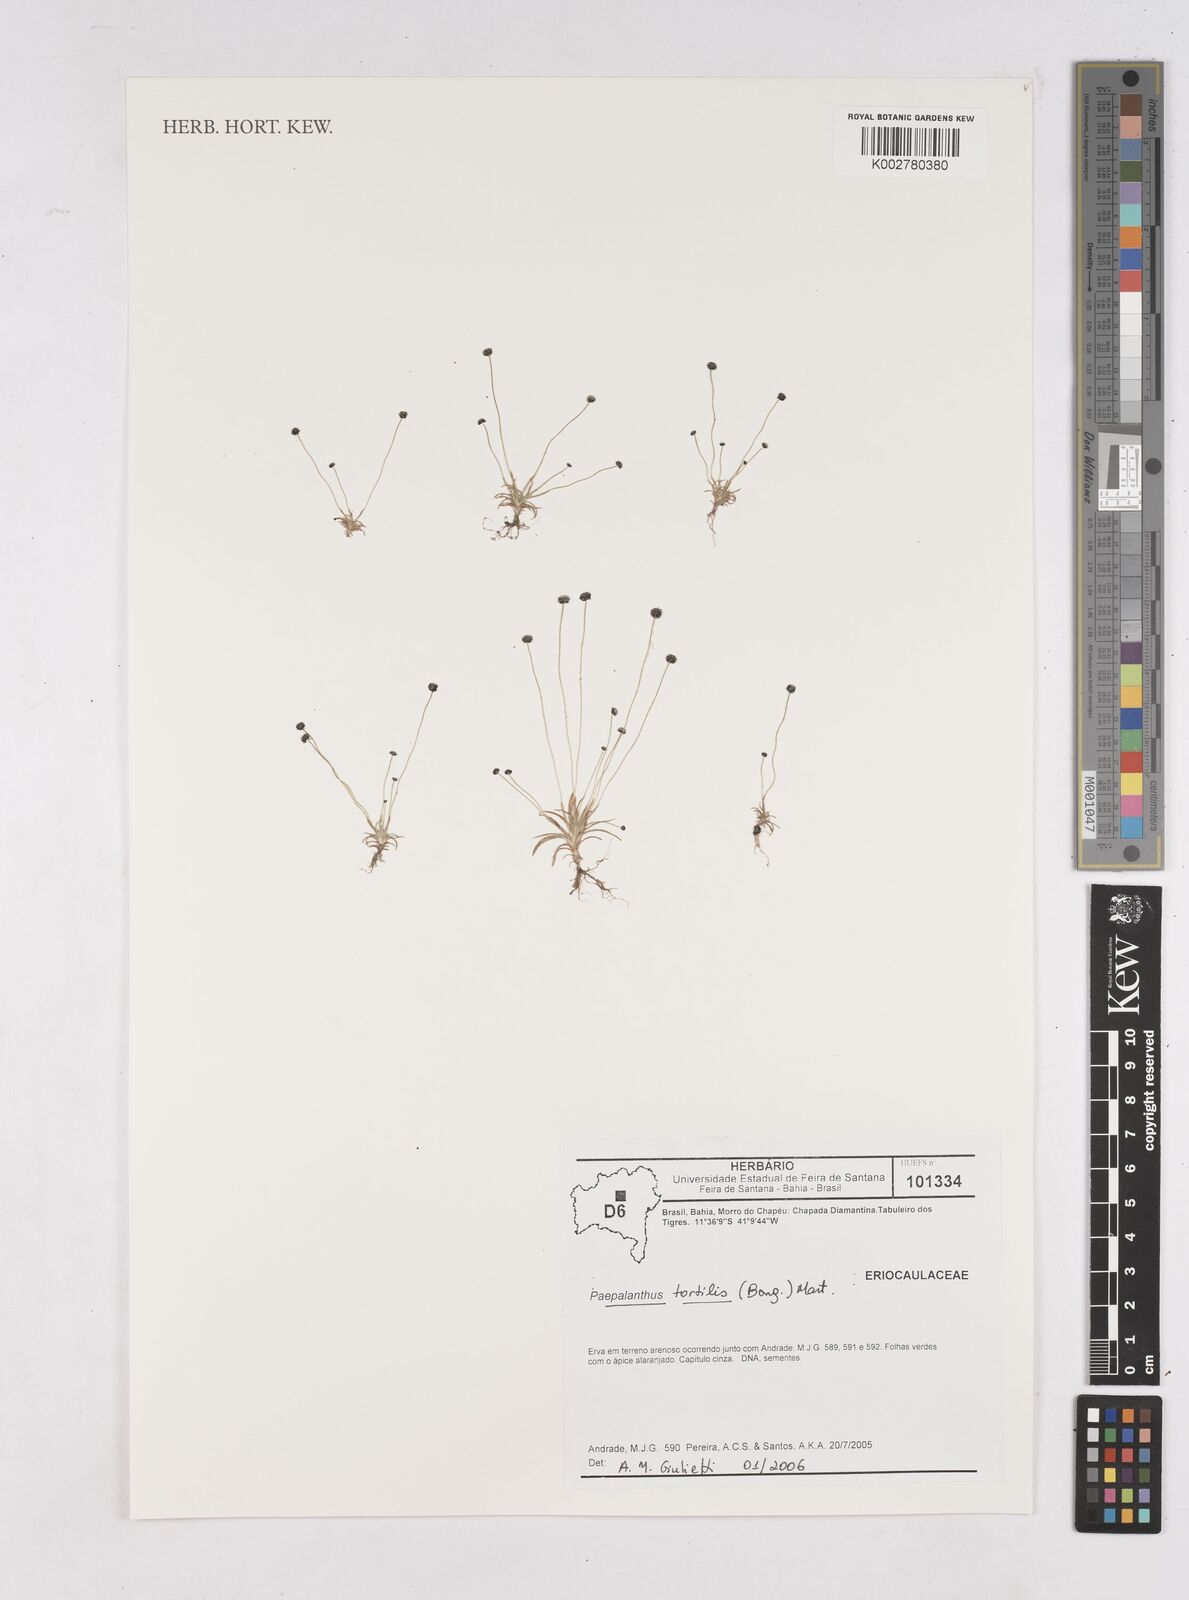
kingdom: Plantae
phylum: Tracheophyta
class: Liliopsida
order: Poales
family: Eriocaulaceae
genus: Paepalanthus
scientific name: Paepalanthus tortilis
